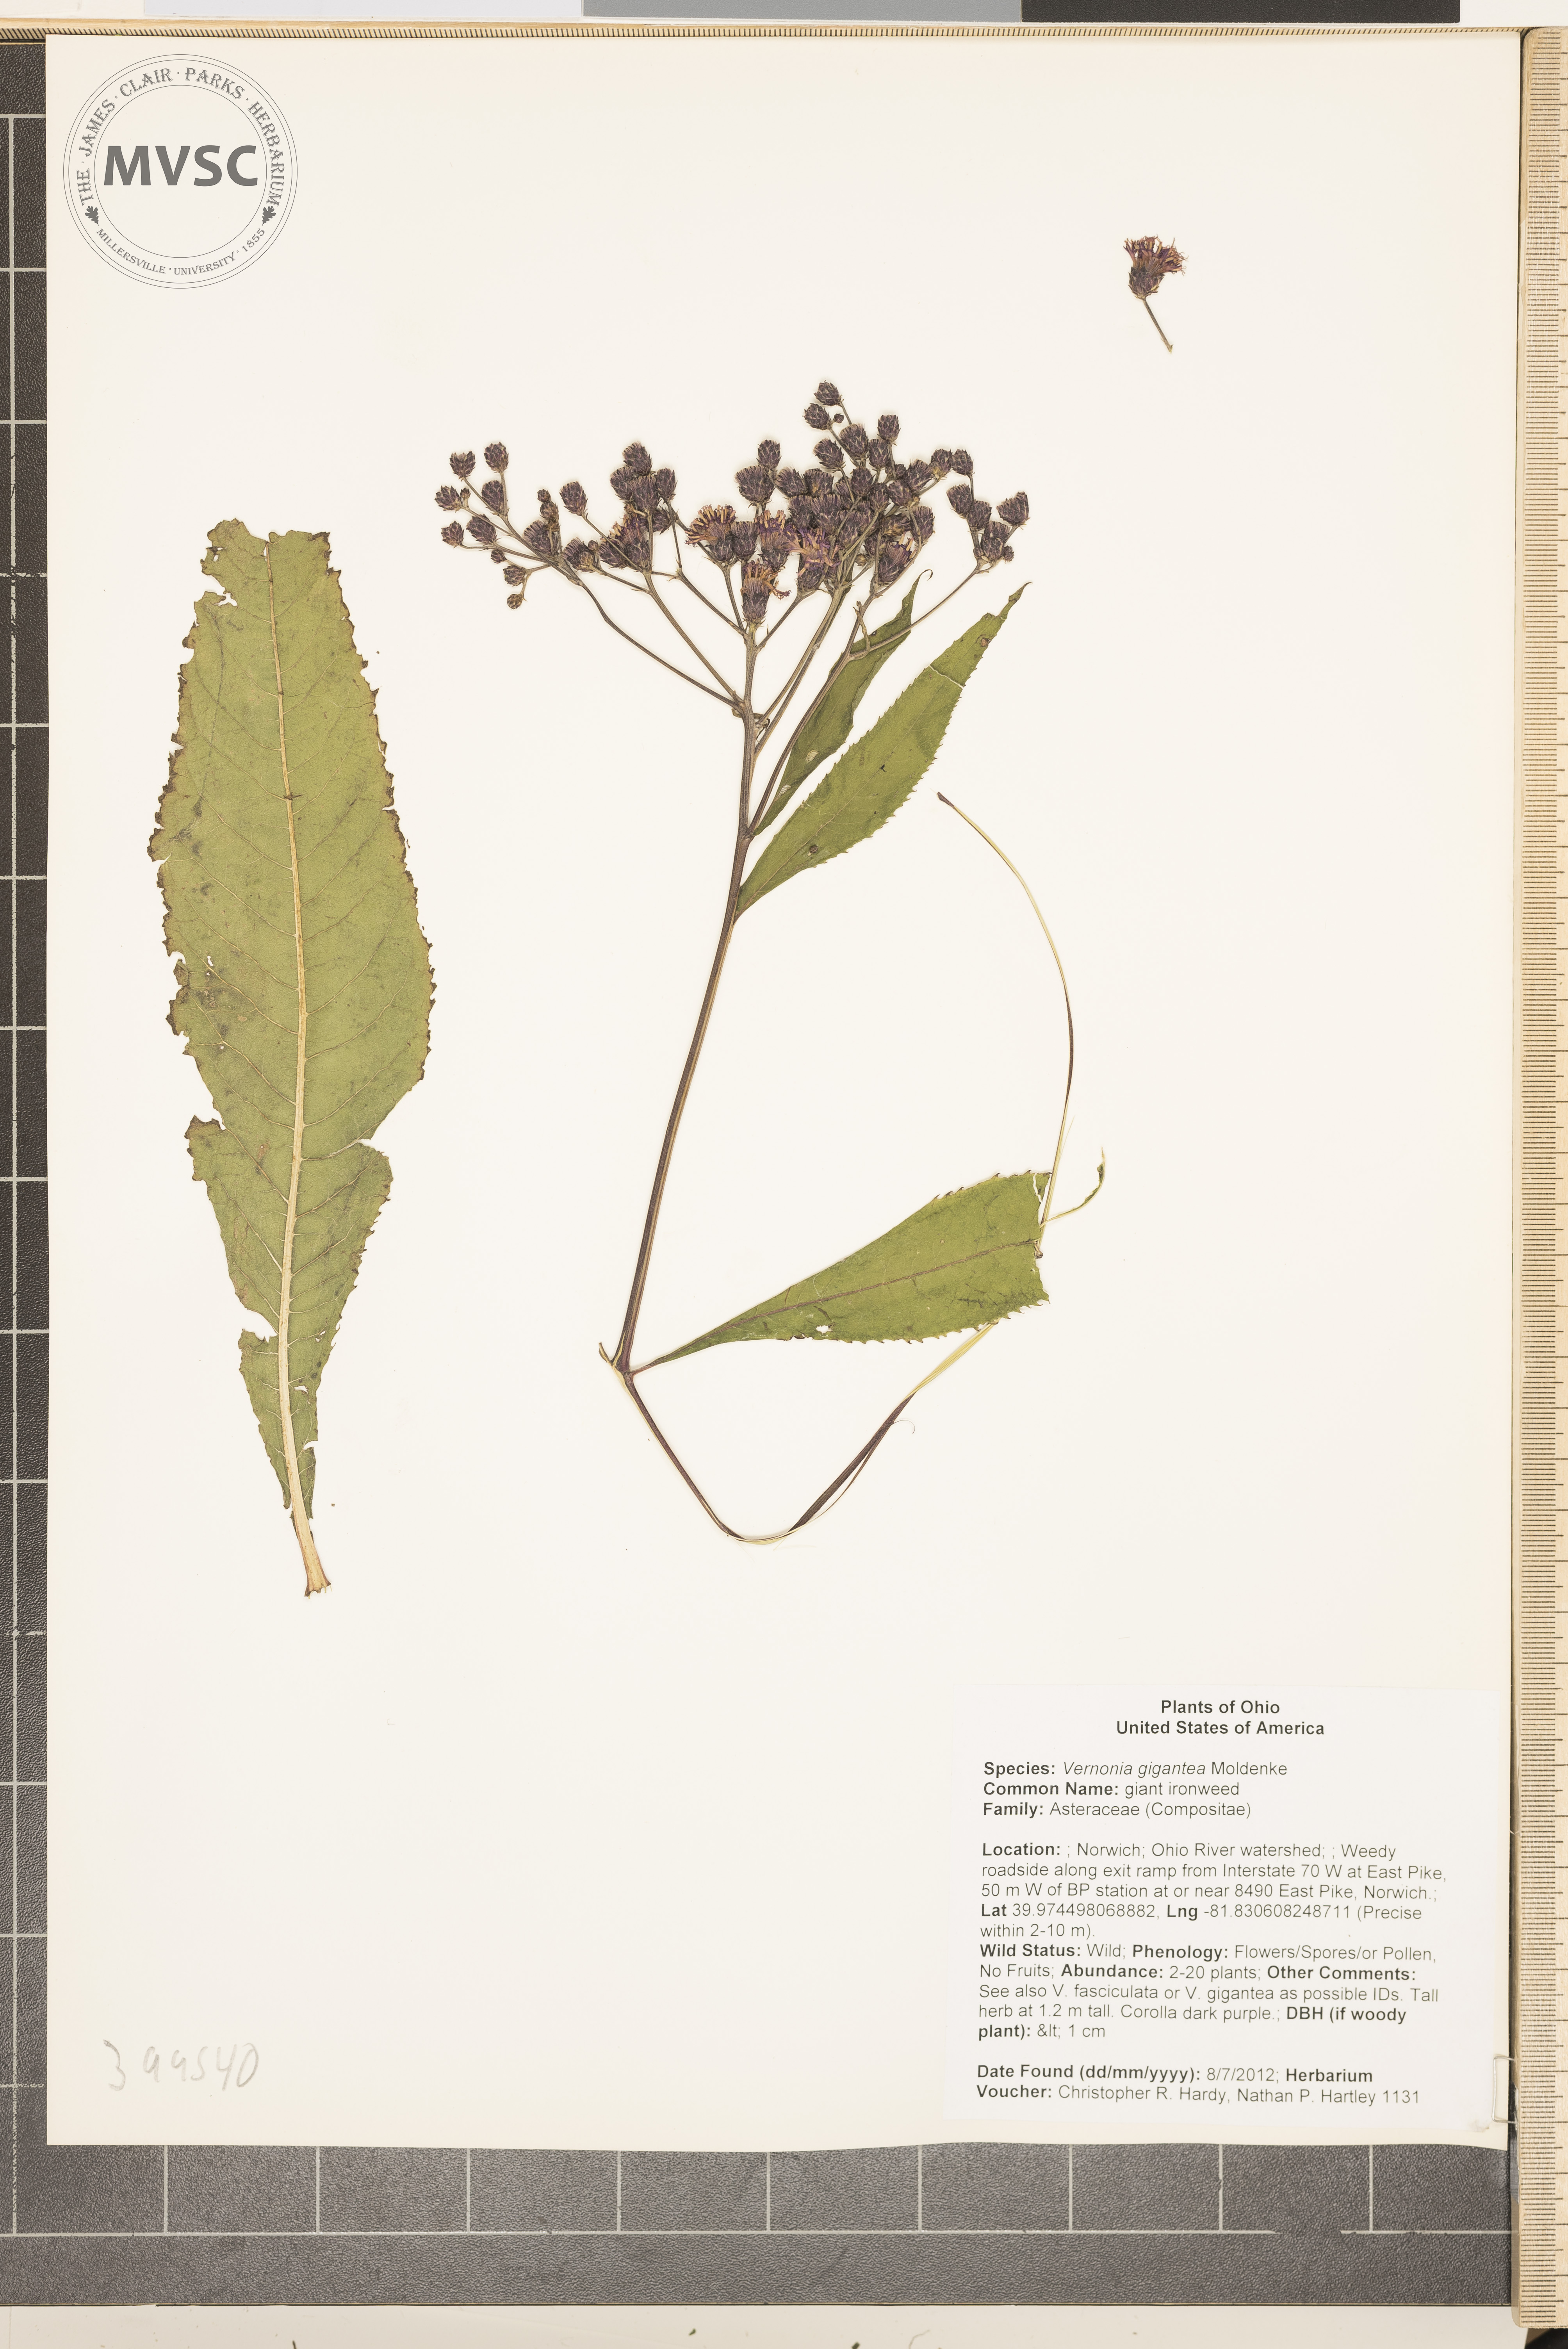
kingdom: Plantae
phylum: Tracheophyta
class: Magnoliopsida
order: Asterales
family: Asteraceae
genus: Vernonia
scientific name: Vernonia gigantea
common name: giant ironweed
